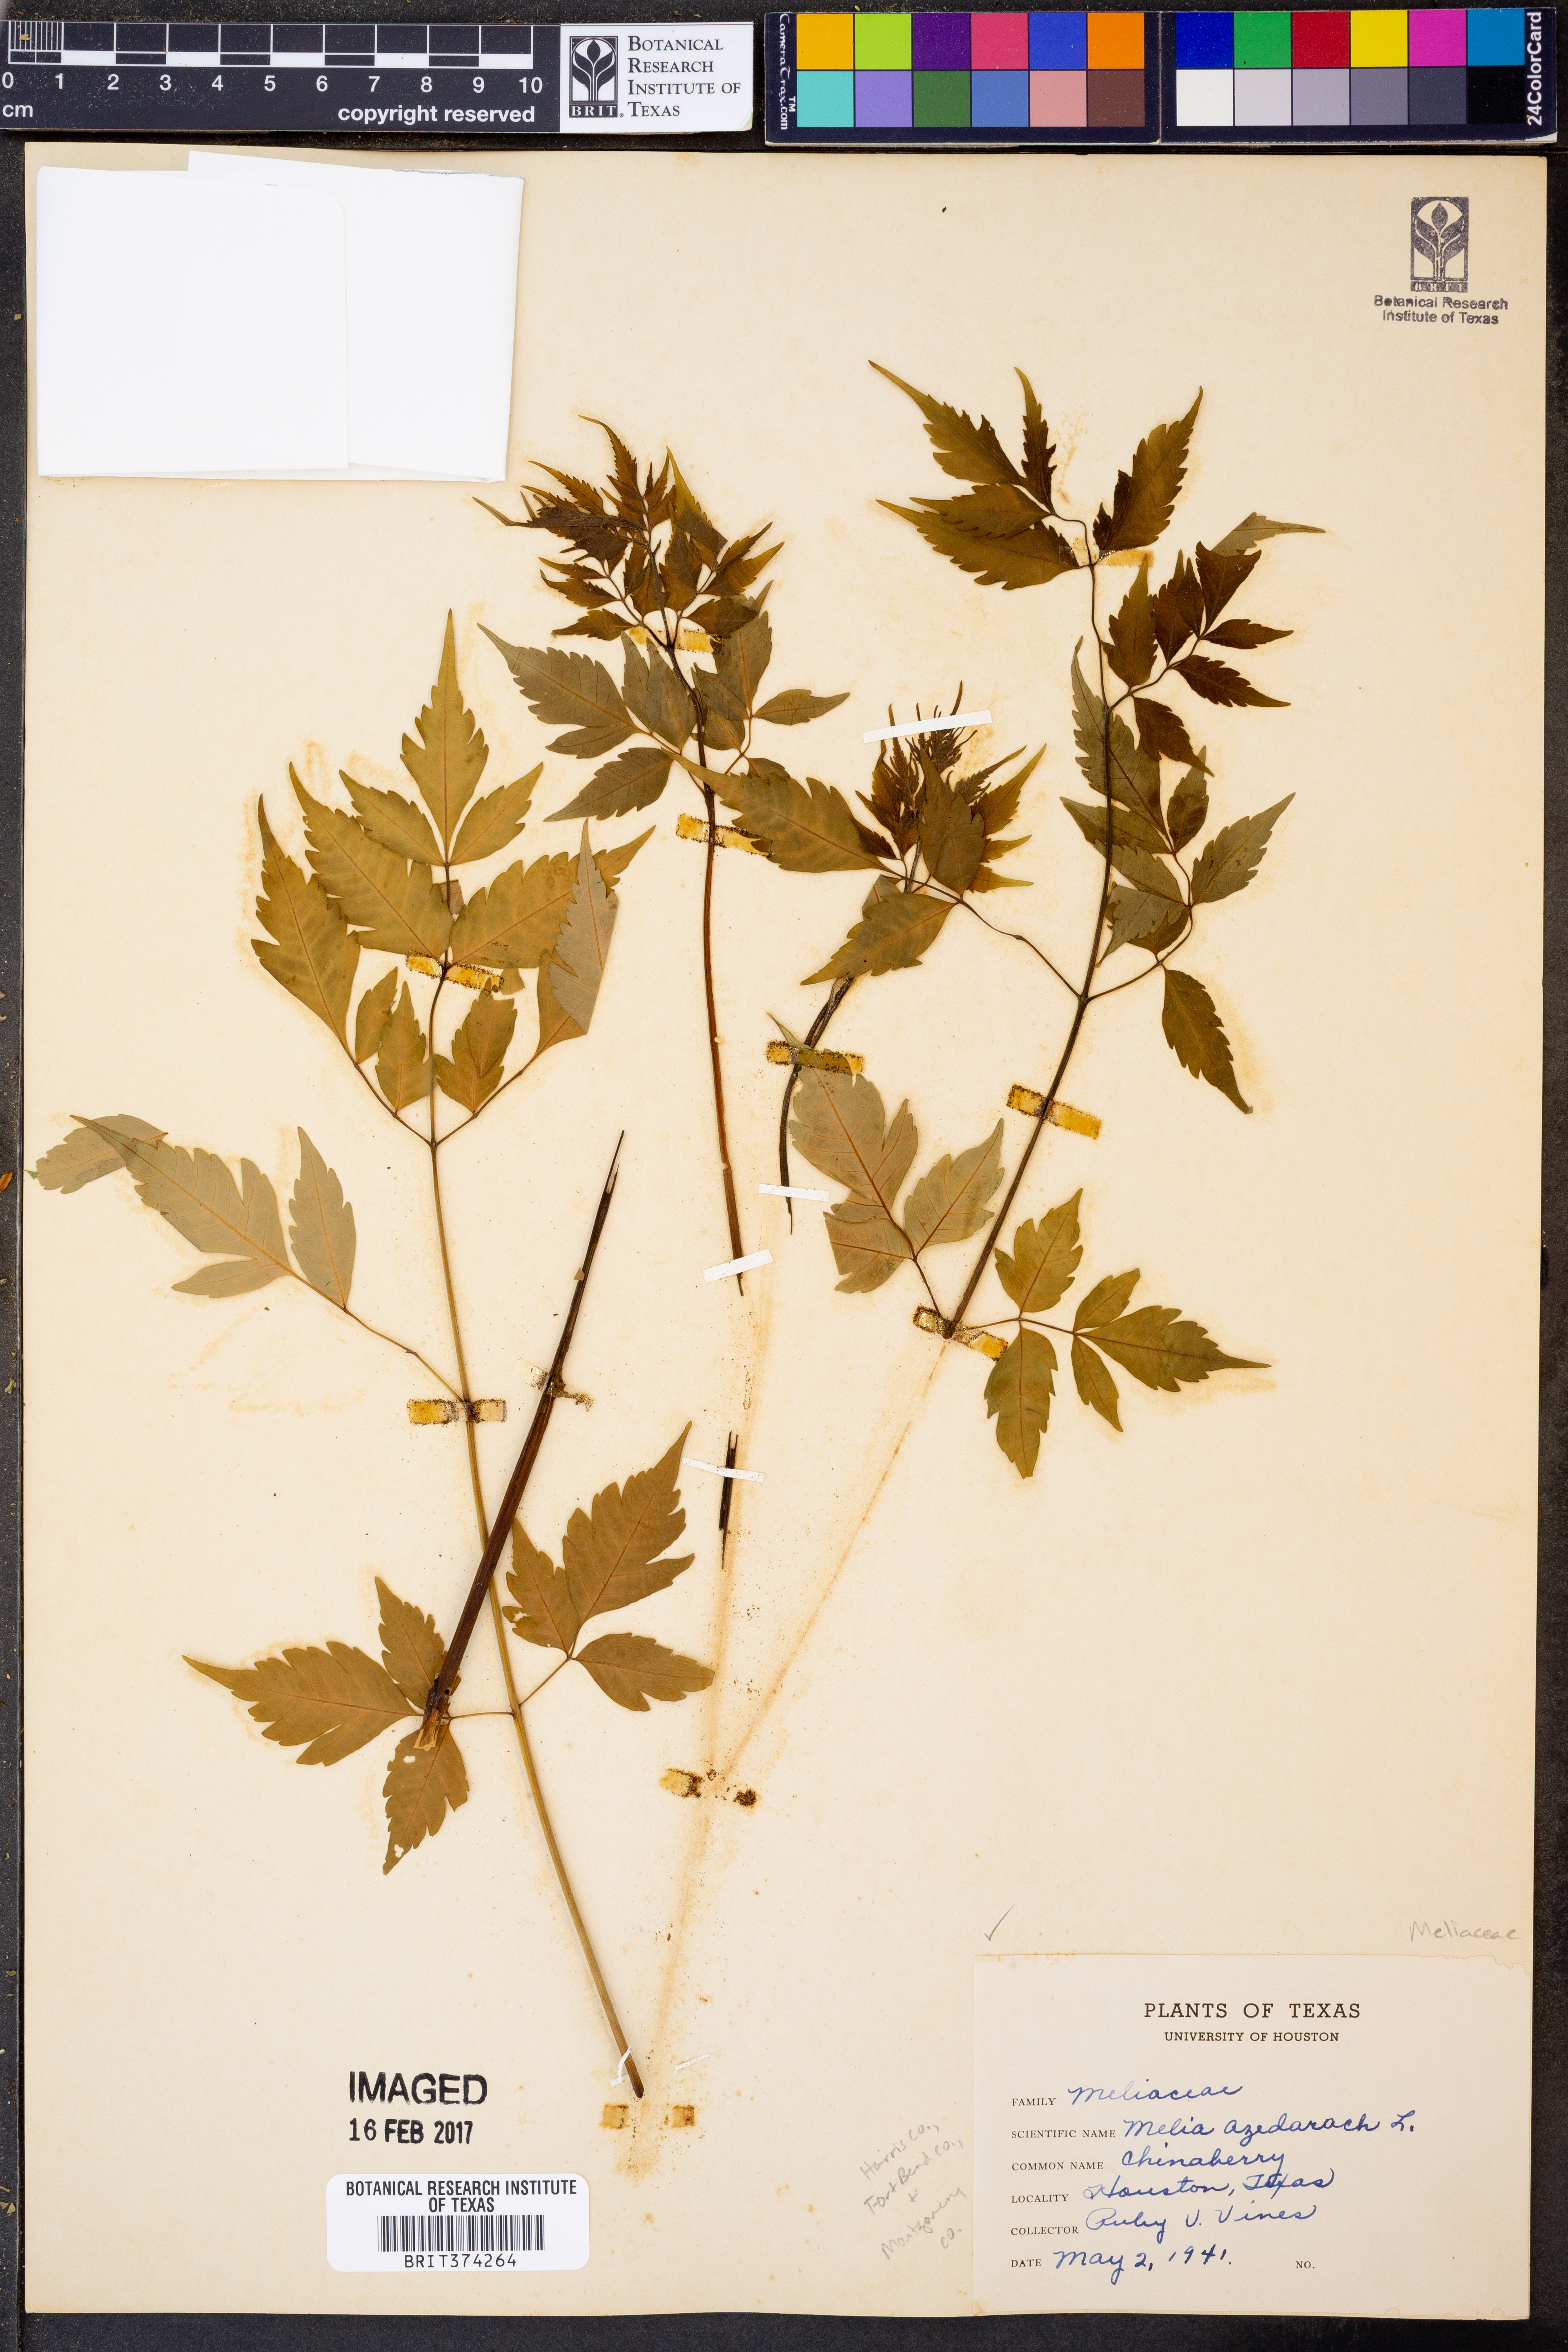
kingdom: Plantae
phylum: Tracheophyta
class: Magnoliopsida
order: Sapindales
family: Meliaceae
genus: Melia
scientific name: Melia azedarach
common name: Chinaberrytree
